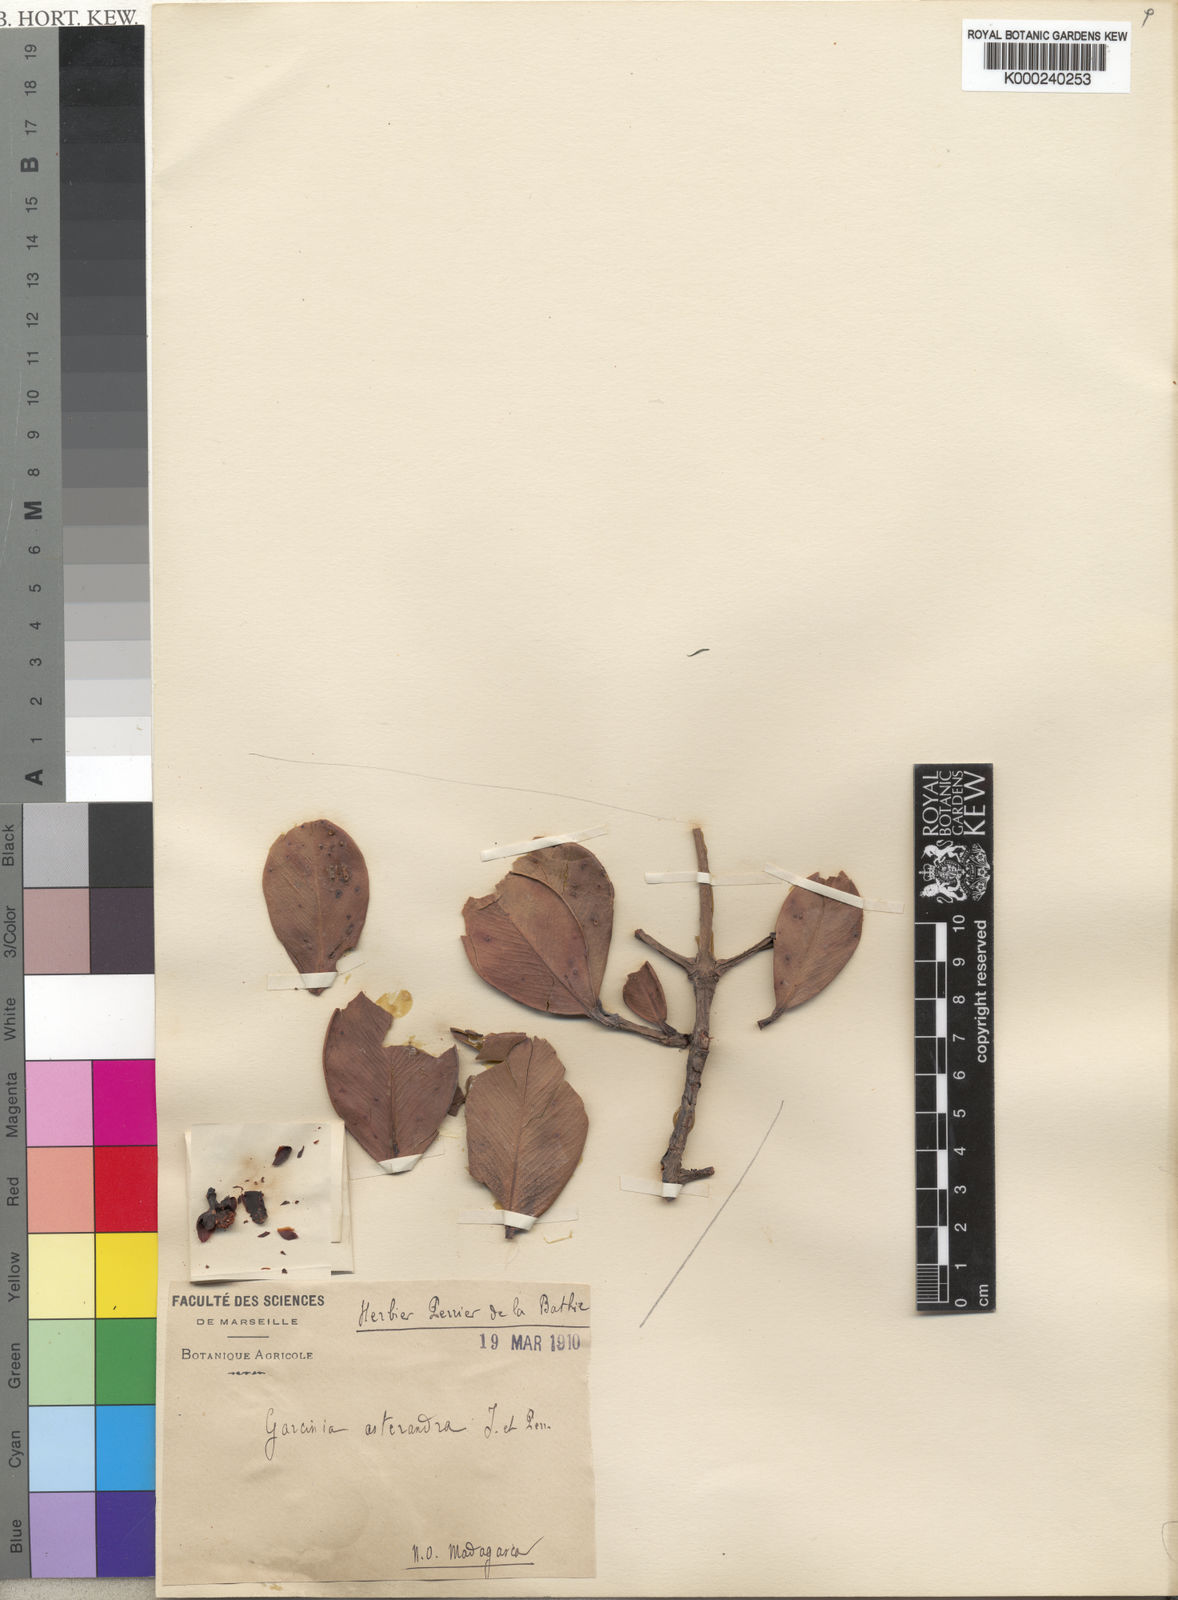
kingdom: Plantae
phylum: Tracheophyta
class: Magnoliopsida
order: Malpighiales
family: Clusiaceae
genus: Garcinia
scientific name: Garcinia asterandra
